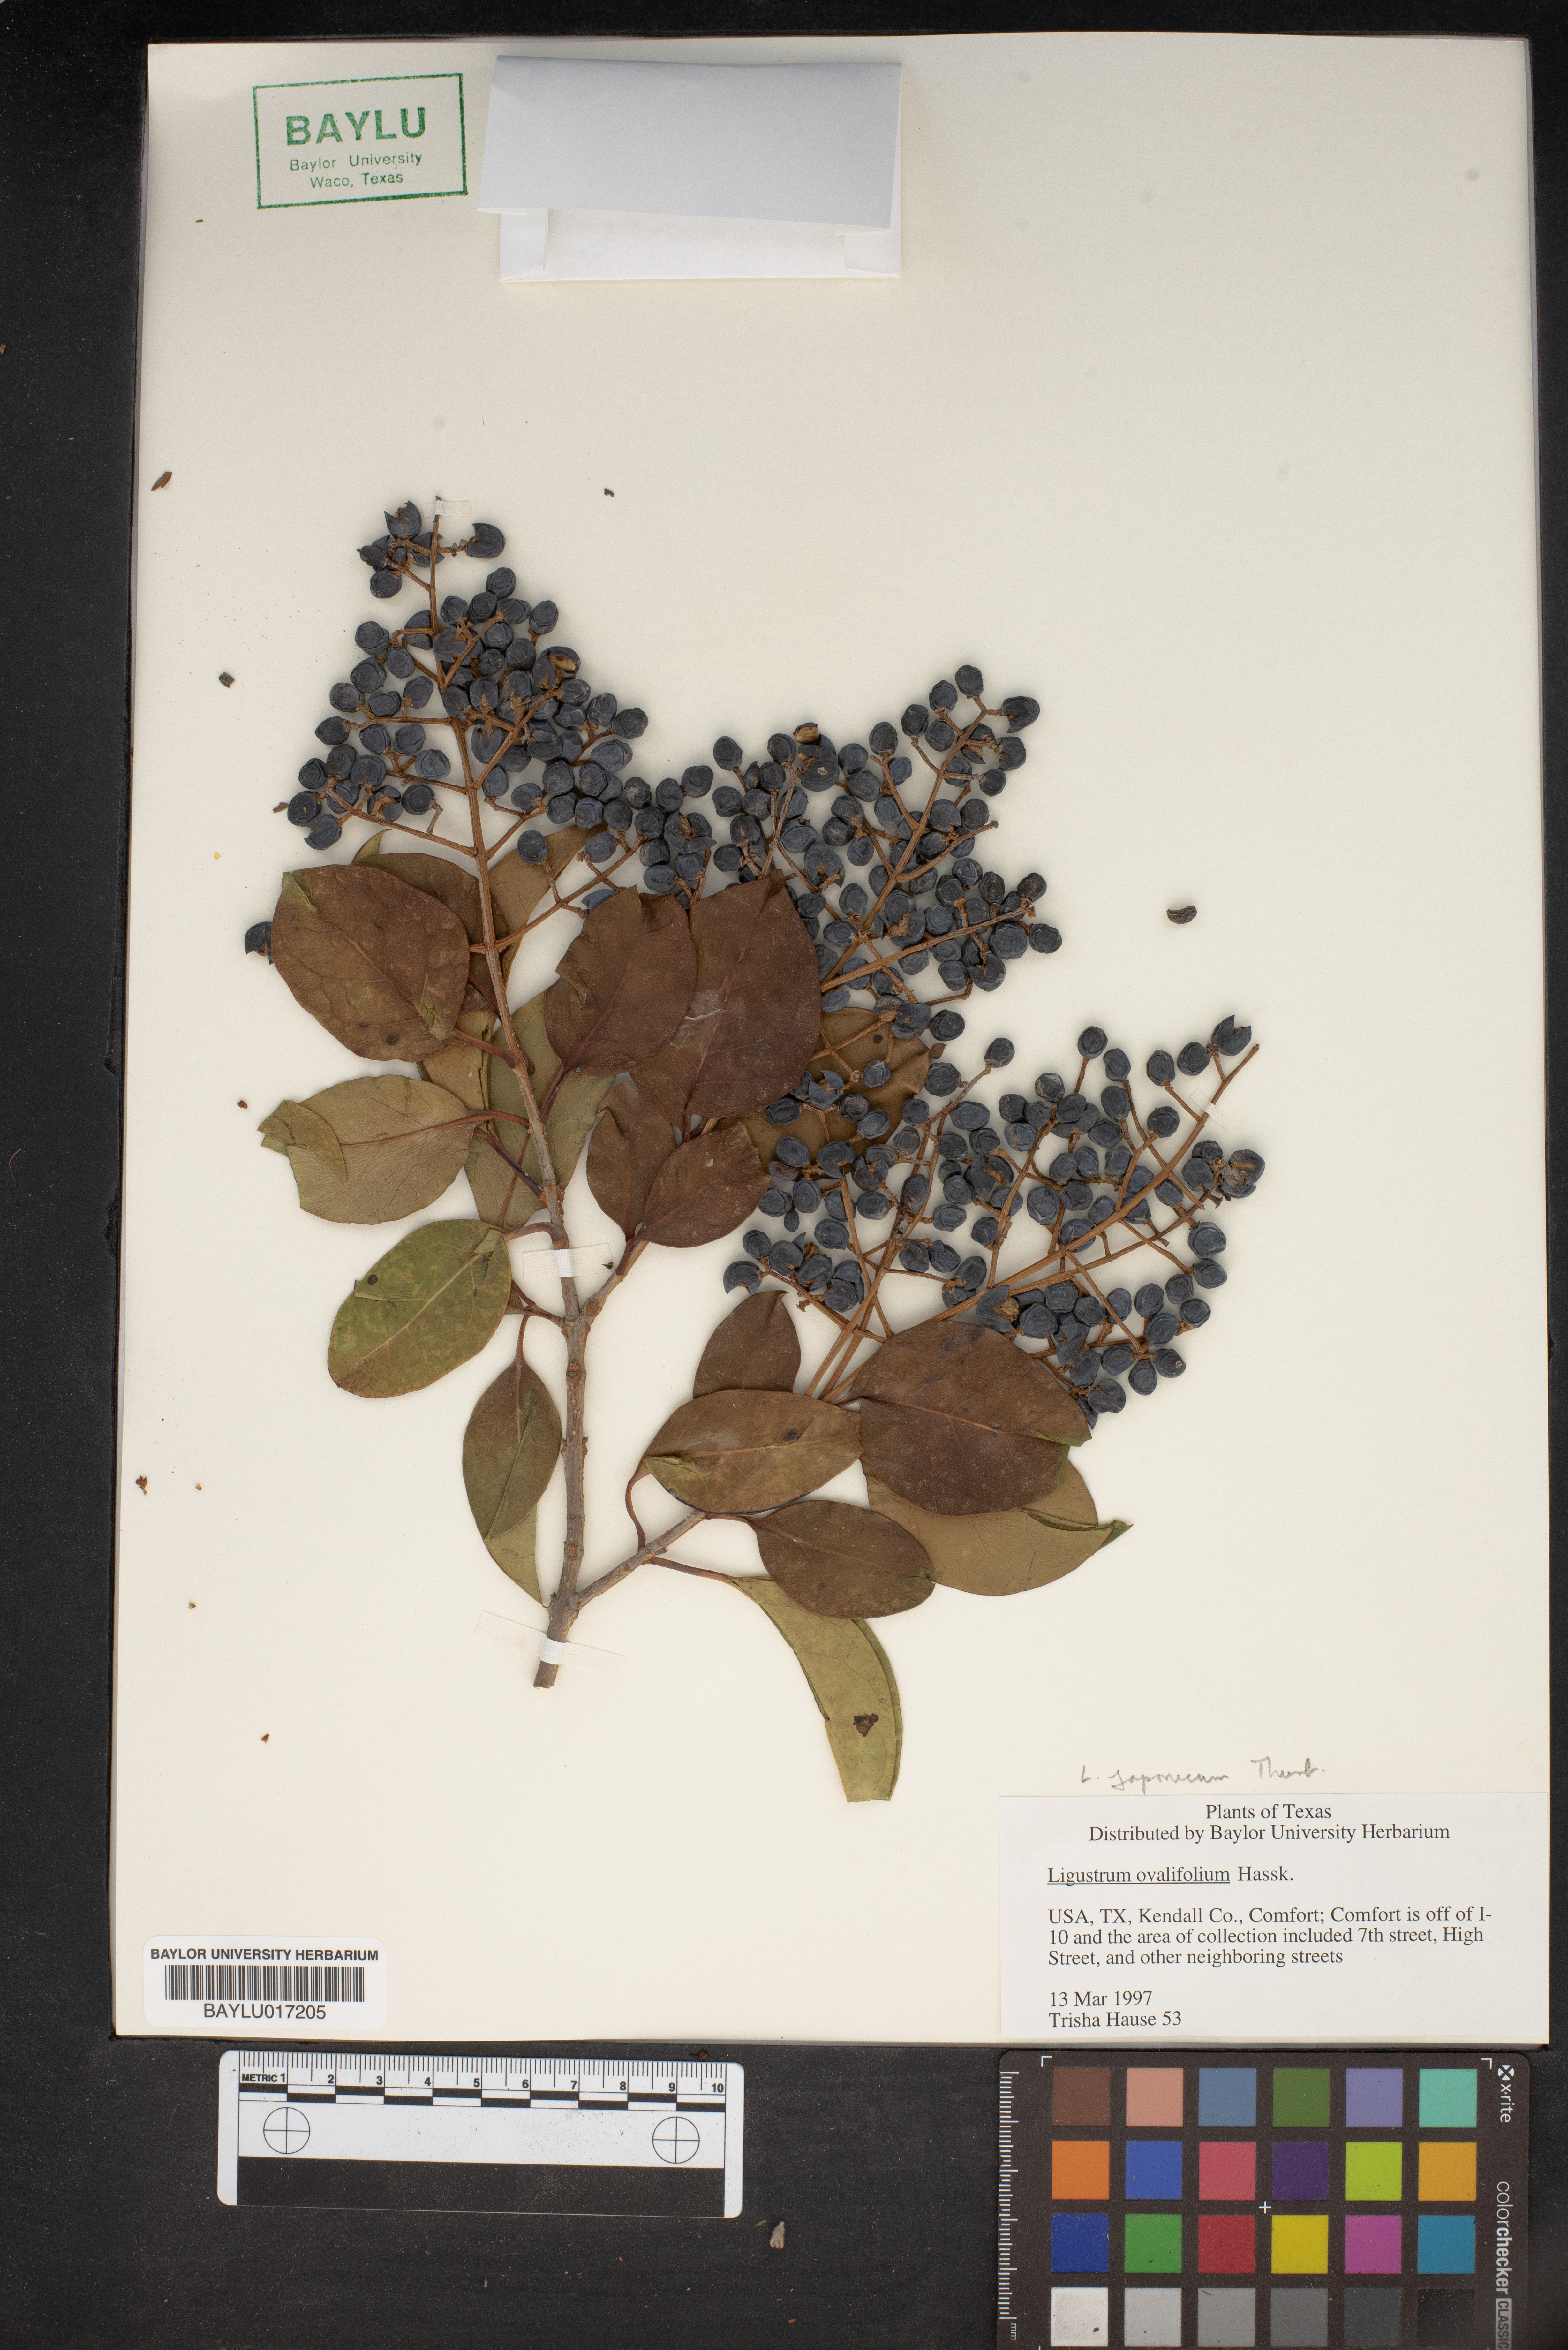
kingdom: Plantae
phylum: Tracheophyta
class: Magnoliopsida
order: Lamiales
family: Oleaceae
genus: Ligustrum
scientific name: Ligustrum ovalifolium
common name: California privet
